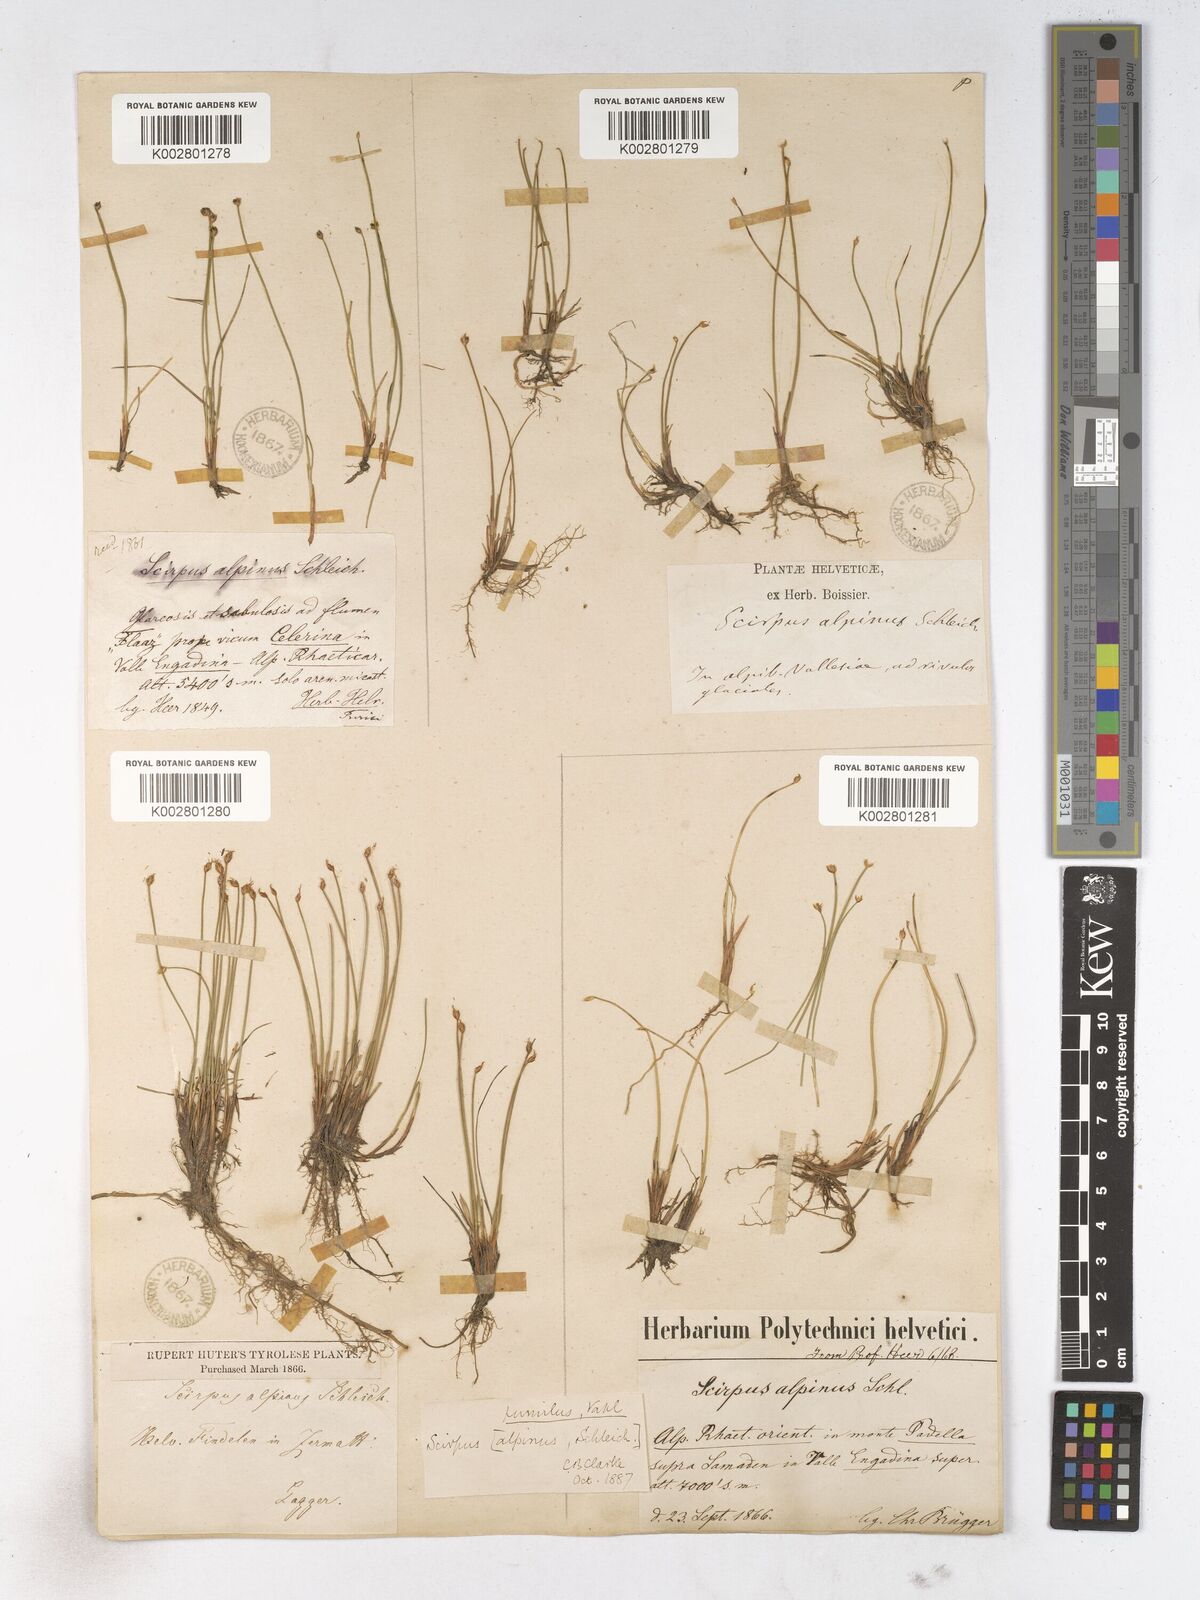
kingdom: Plantae
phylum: Tracheophyta
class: Liliopsida
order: Poales
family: Cyperaceae
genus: Trichophorum
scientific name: Trichophorum pumilum
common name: Rolland's bulrush
